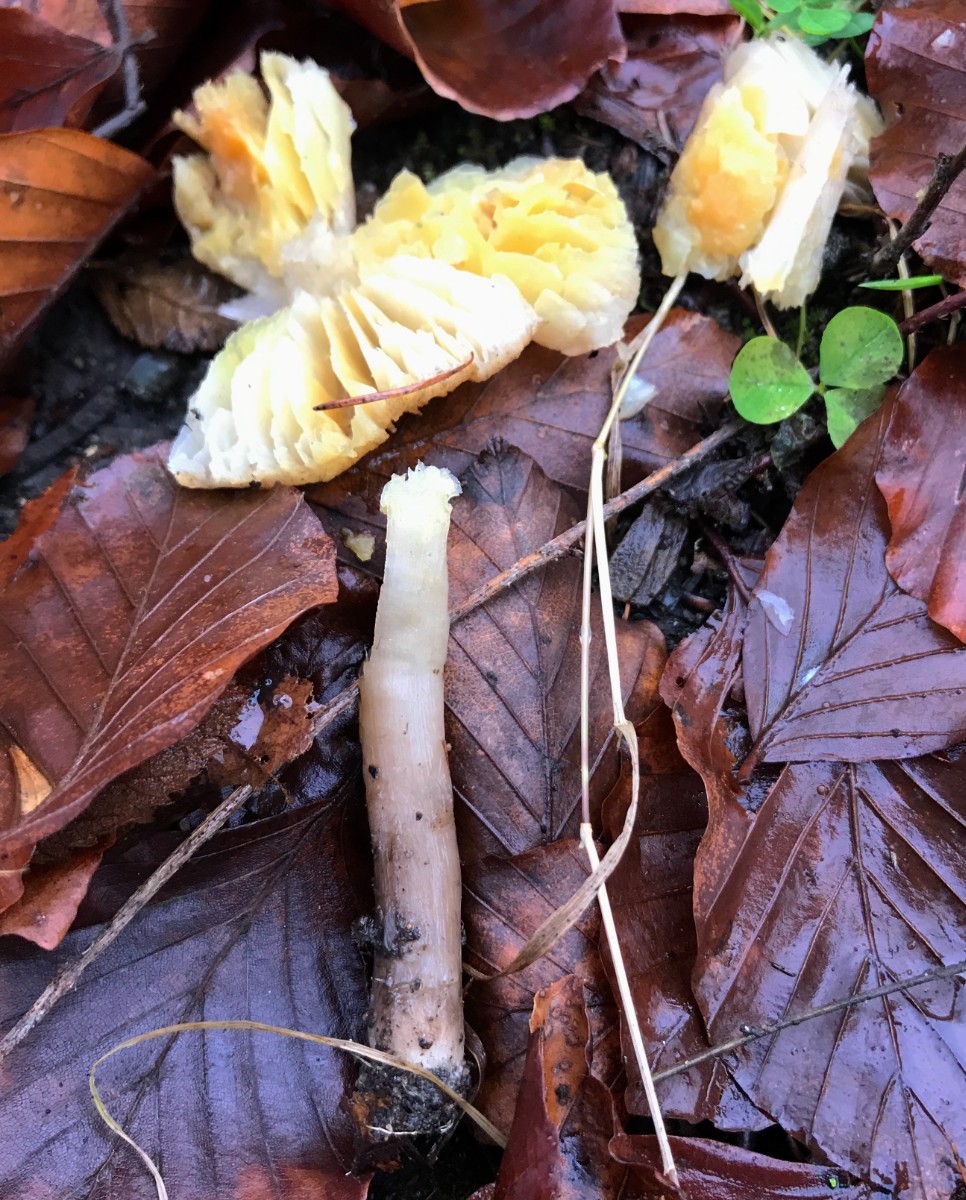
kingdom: Fungi
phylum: Basidiomycota
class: Agaricomycetes
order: Agaricales
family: Tricholomataceae
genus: Tricholoma
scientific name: Tricholoma scalpturatum
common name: gulplettet ridderhat
